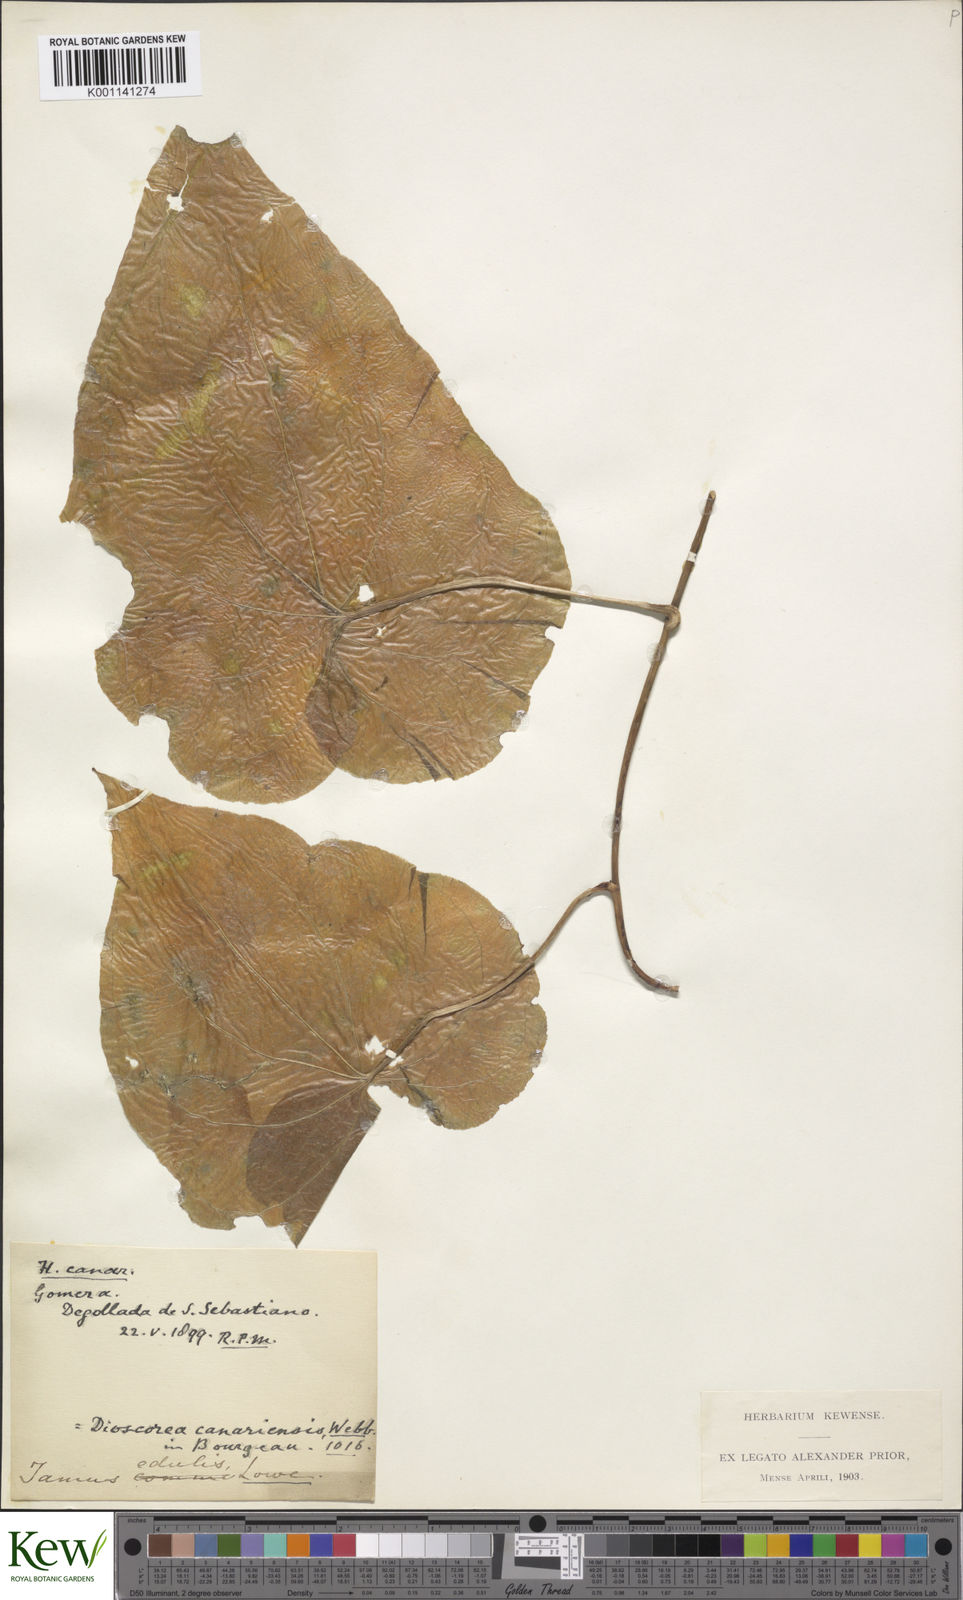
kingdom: Plantae
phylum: Tracheophyta
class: Liliopsida
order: Dioscoreales
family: Dioscoreaceae
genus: Dioscorea
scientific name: Dioscorea
